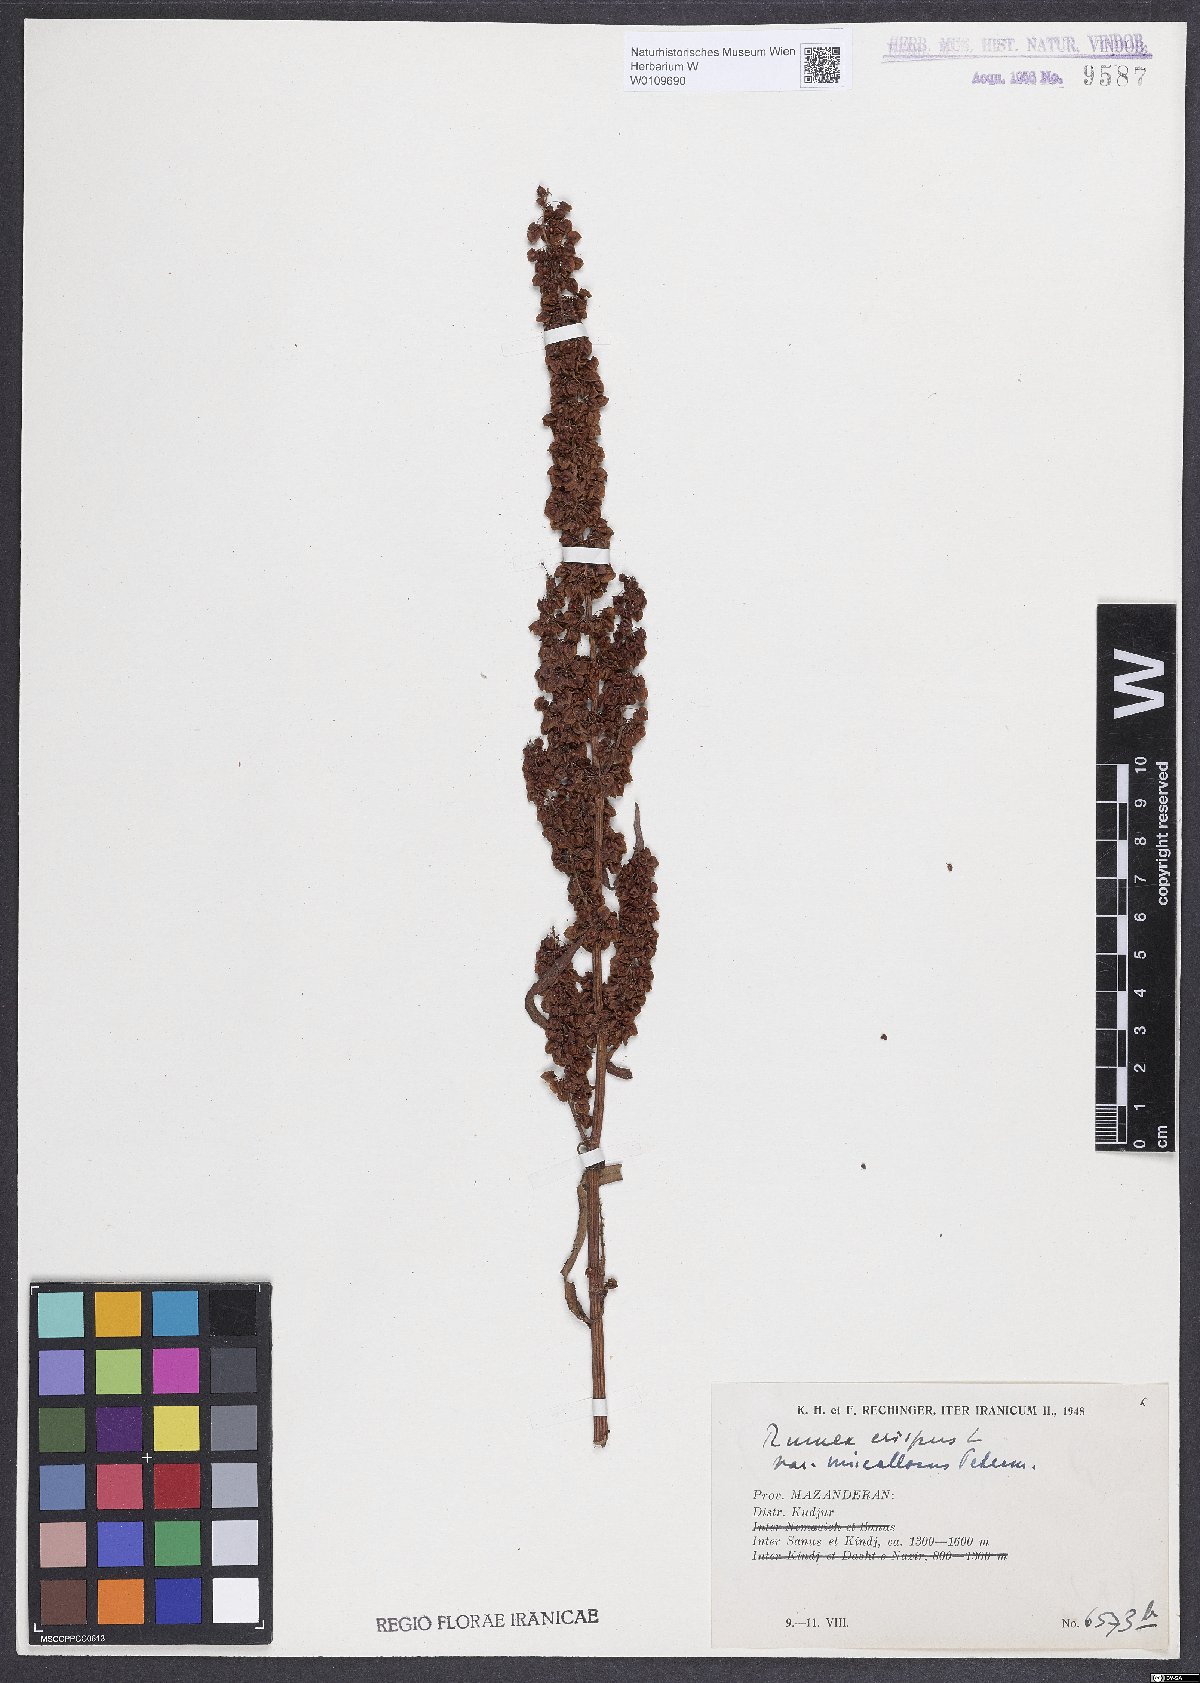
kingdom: Plantae
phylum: Tracheophyta
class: Magnoliopsida
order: Caryophyllales
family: Polygonaceae
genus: Rumex
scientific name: Rumex crispus
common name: Curled dock
